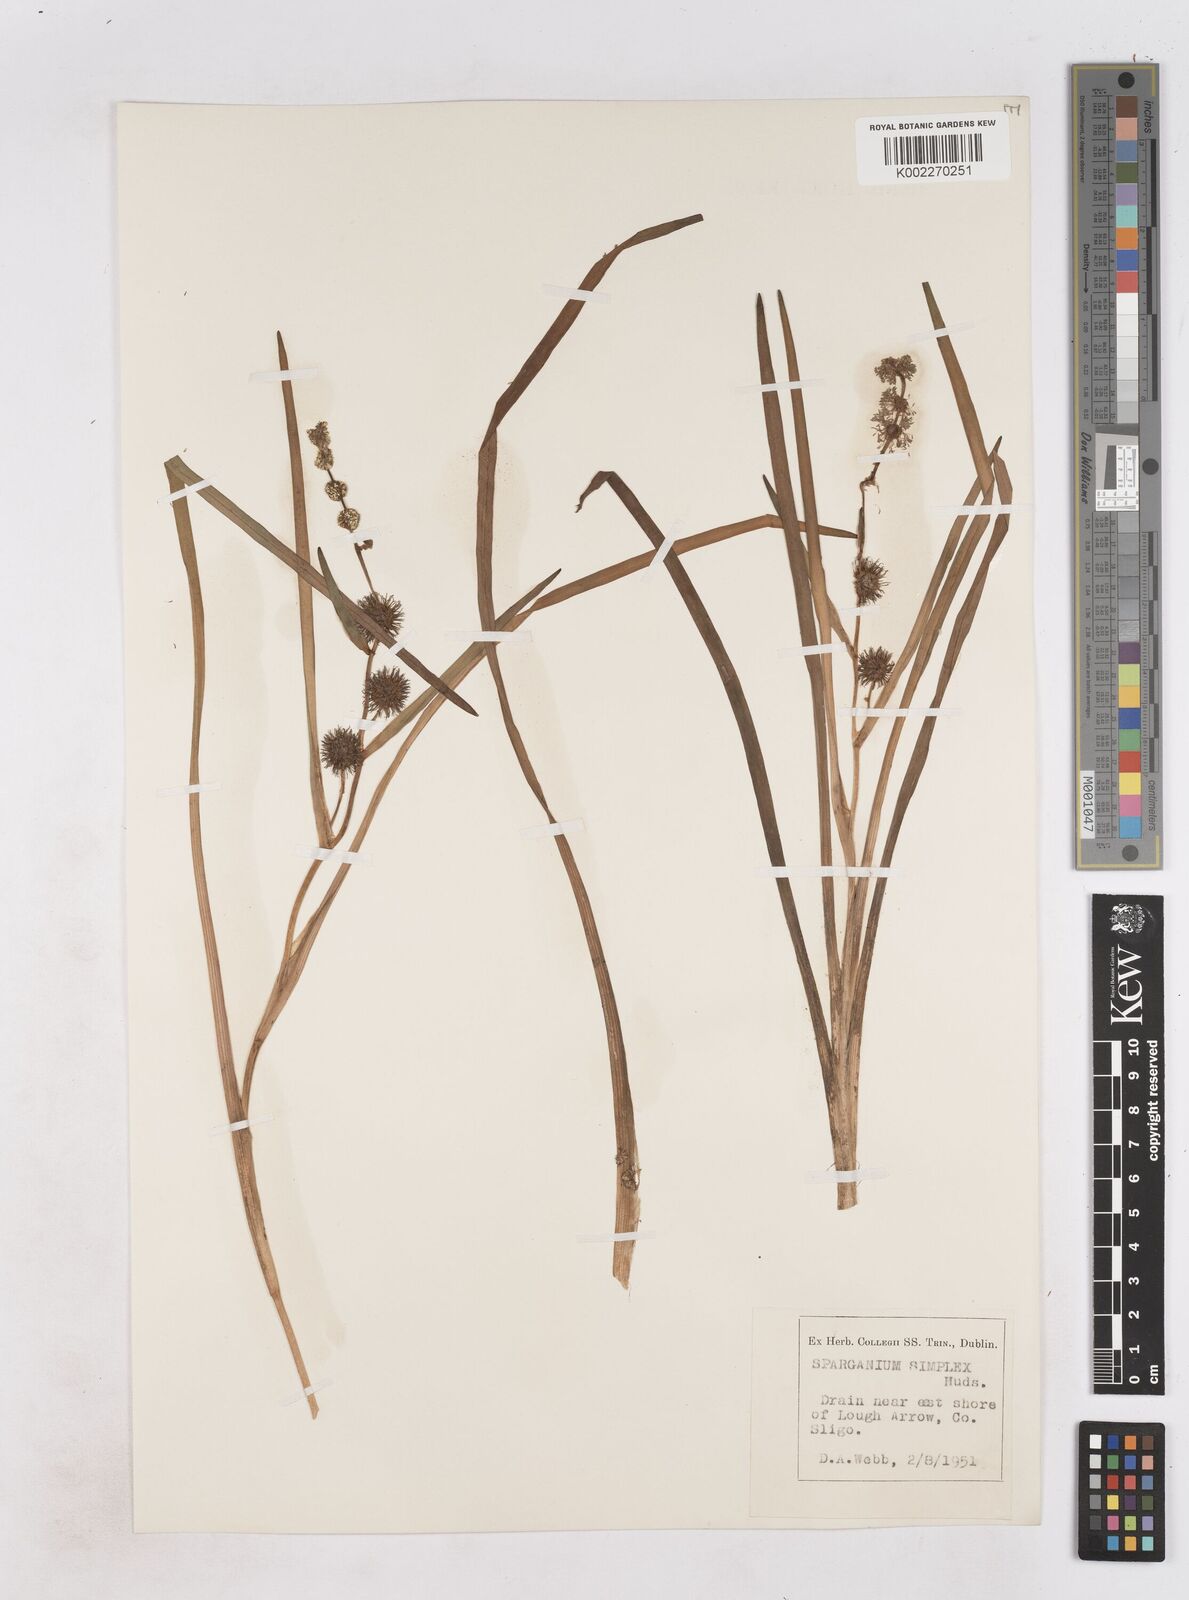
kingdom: Plantae
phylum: Tracheophyta
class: Liliopsida
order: Poales
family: Typhaceae
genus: Sparganium
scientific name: Sparganium emersum
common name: Unbranched bur-reed
